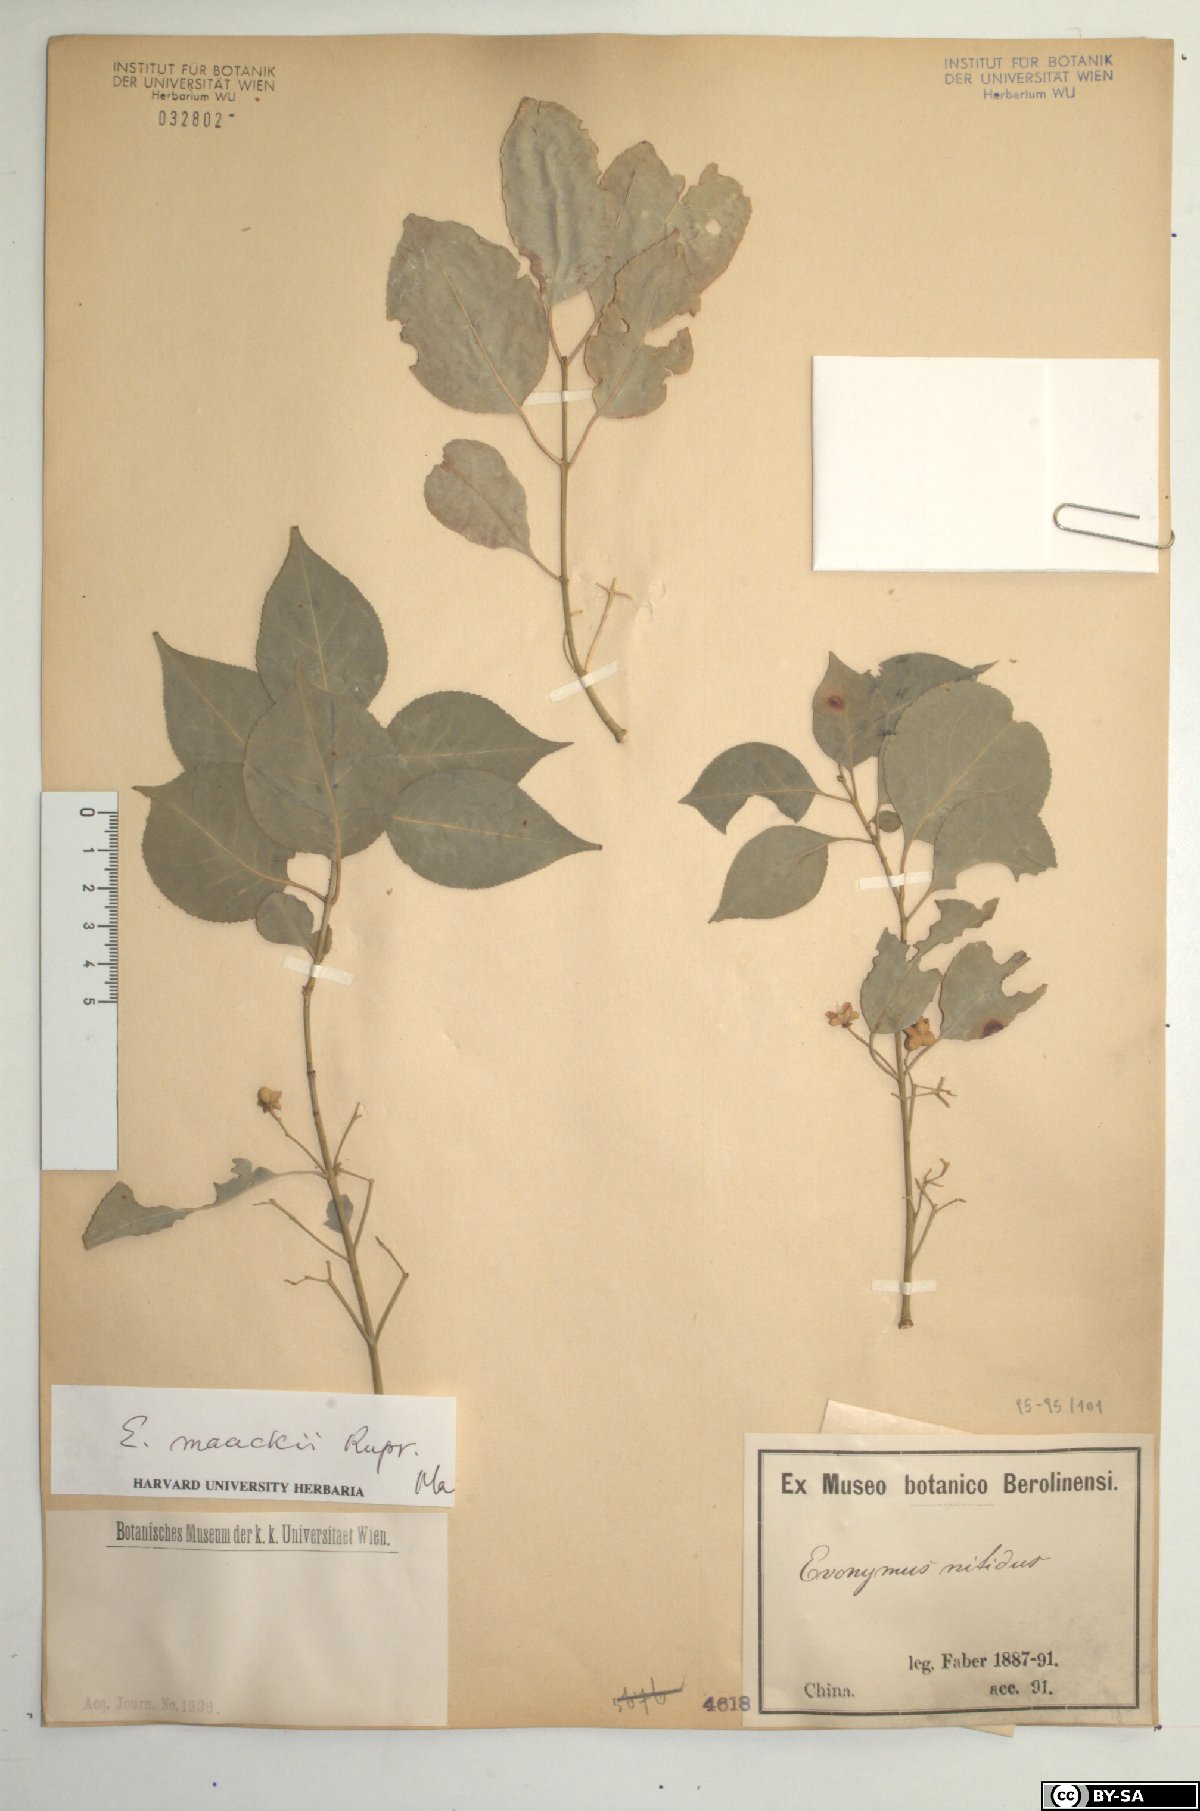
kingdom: Plantae
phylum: Tracheophyta
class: Magnoliopsida
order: Celastrales
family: Celastraceae
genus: Euonymus
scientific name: Euonymus maackii
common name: Hamilton's spindletree
